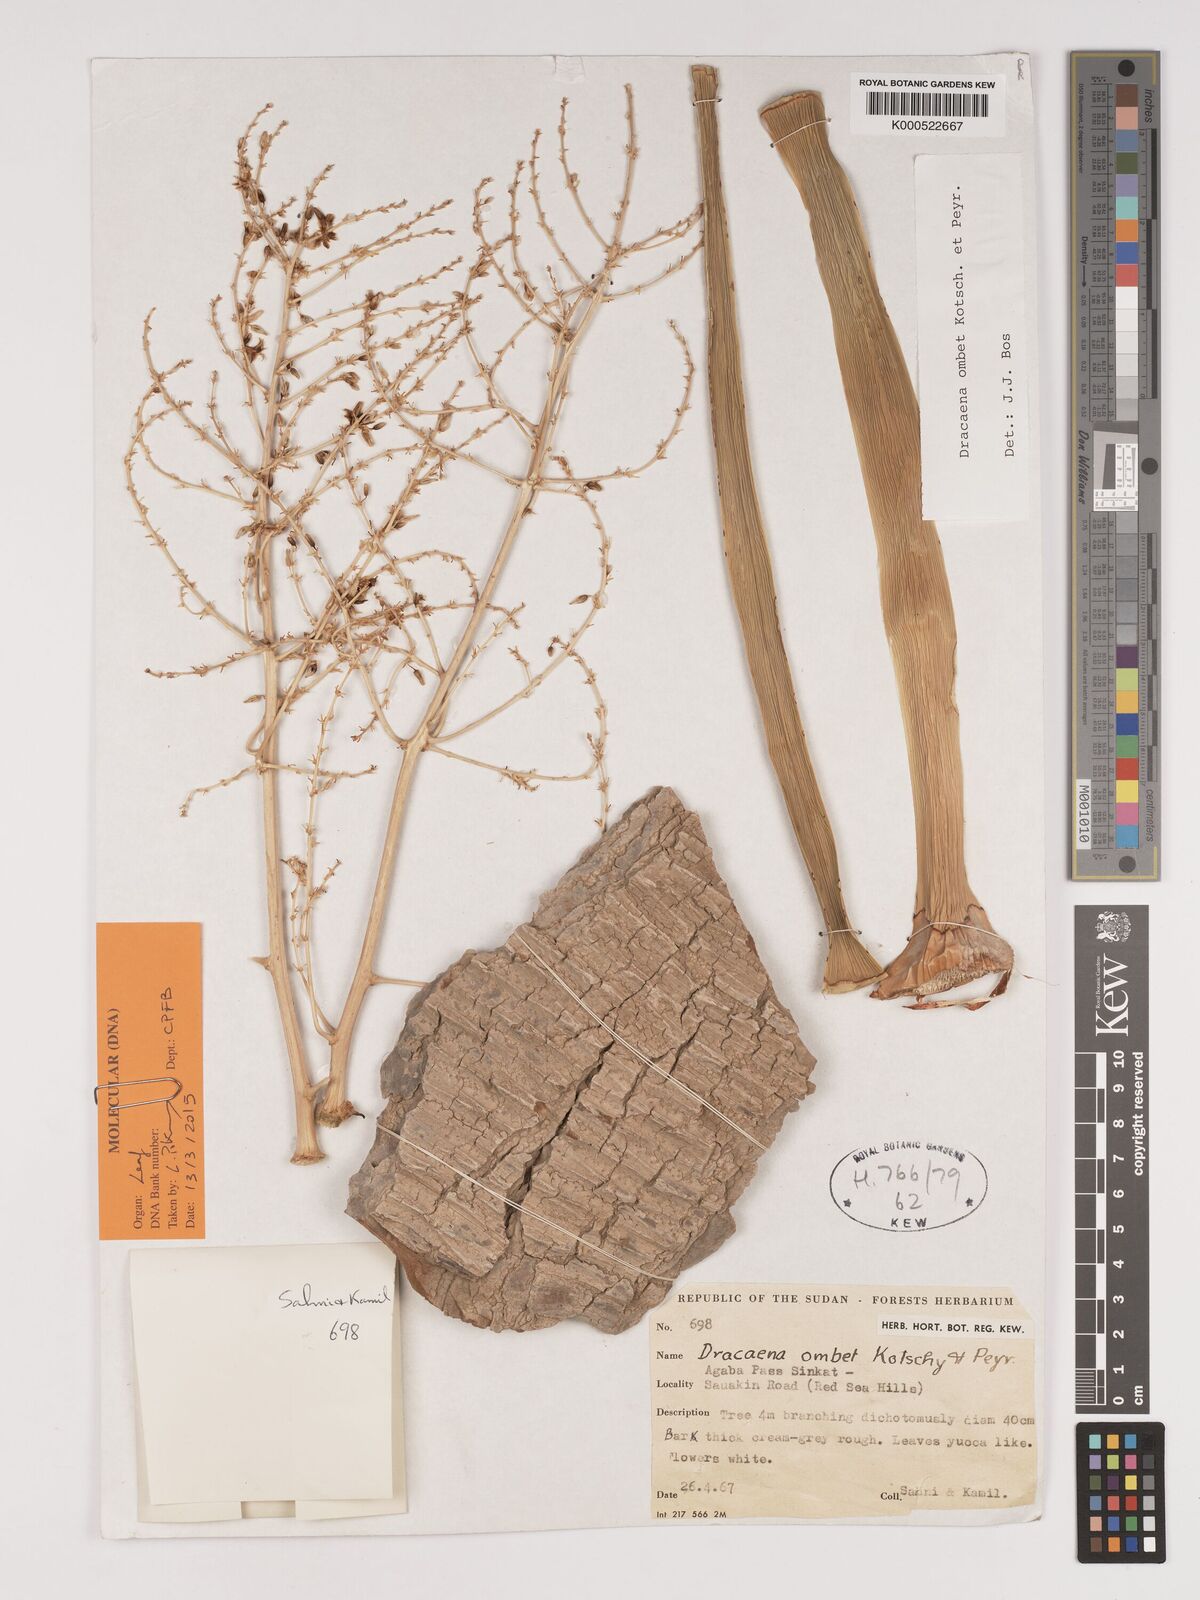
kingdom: Plantae
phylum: Tracheophyta
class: Liliopsida
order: Asparagales
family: Asparagaceae
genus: Dracaena
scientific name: Dracaena ombet
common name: Gabal elba dragon tree
